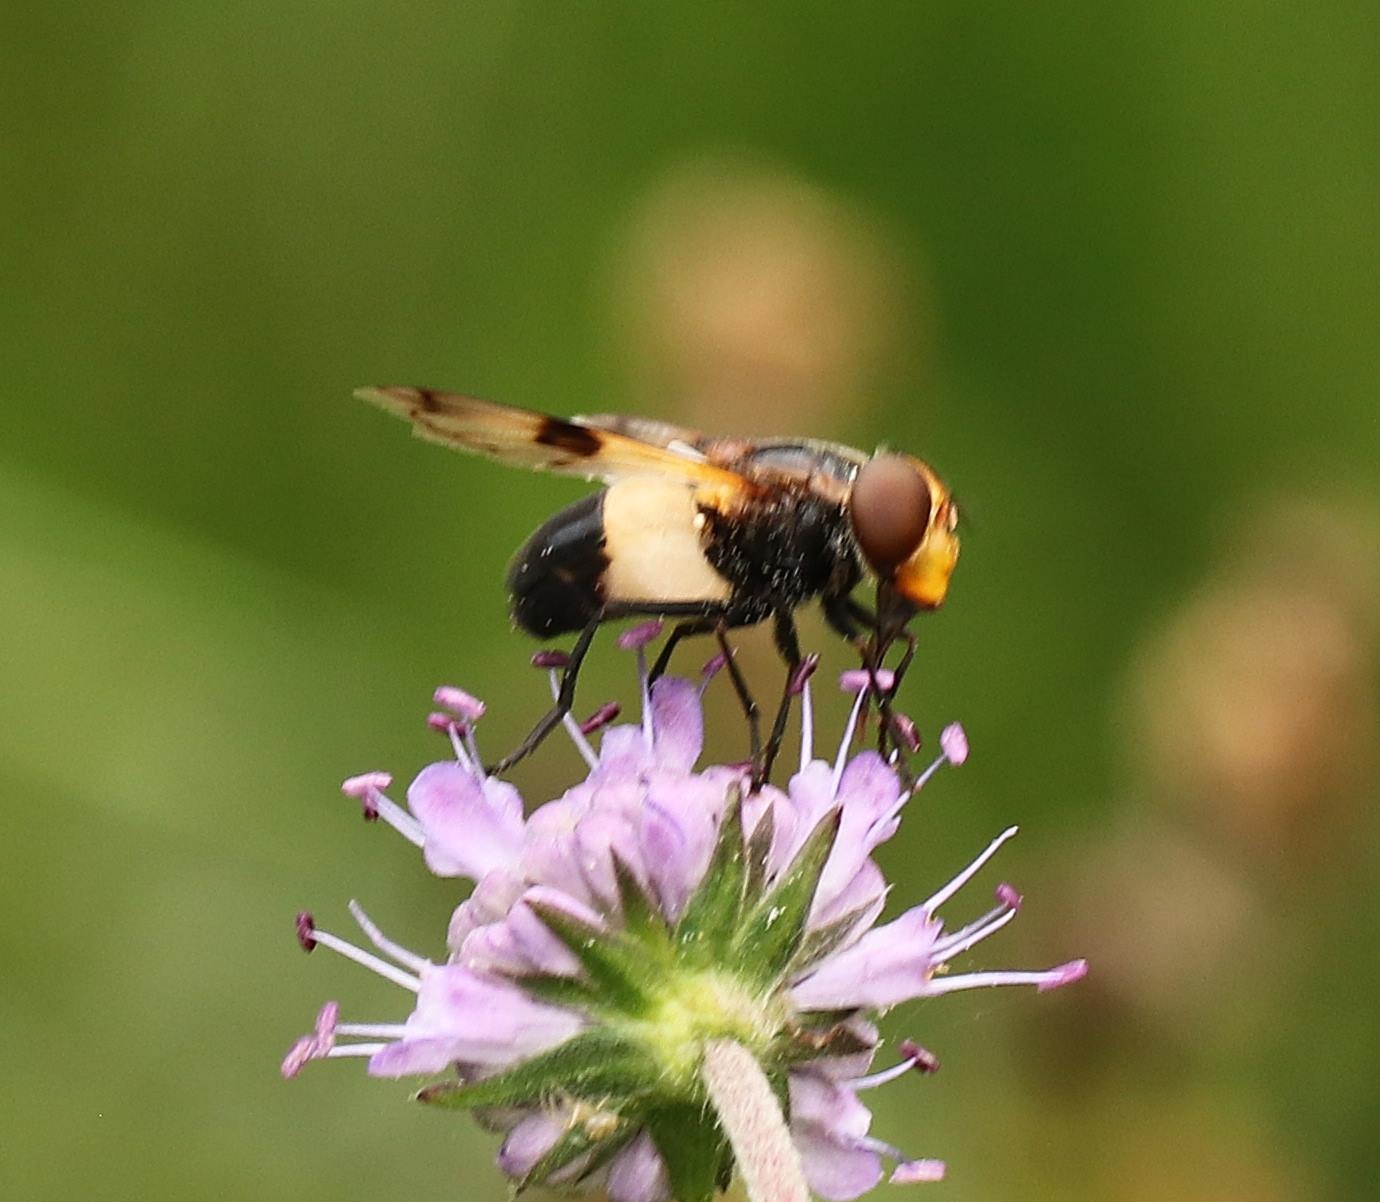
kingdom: Animalia
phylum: Arthropoda
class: Insecta
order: Diptera
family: Syrphidae
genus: Volucella
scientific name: Volucella pellucens
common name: Hvidbåndet humlesvirreflue
